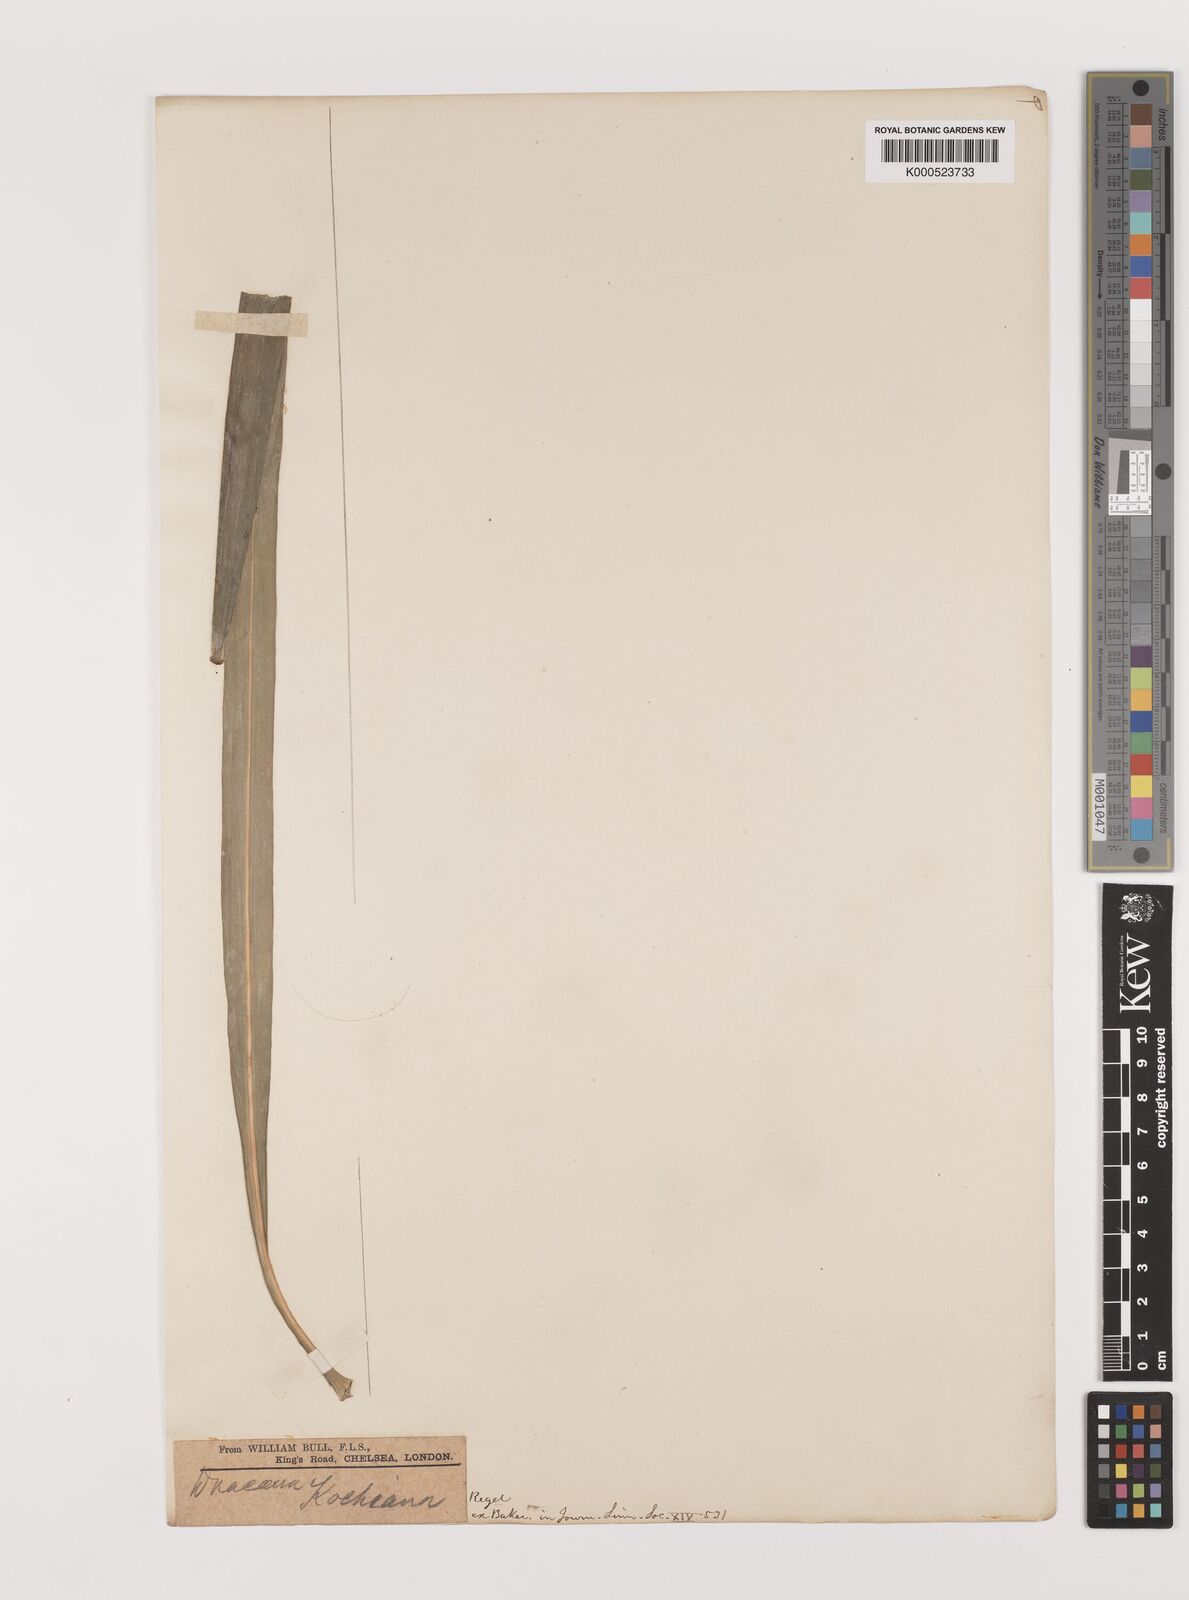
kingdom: Plantae
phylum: Tracheophyta
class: Liliopsida
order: Asparagales
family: Asparagaceae
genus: Dracaena
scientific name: Dracaena kochiana
